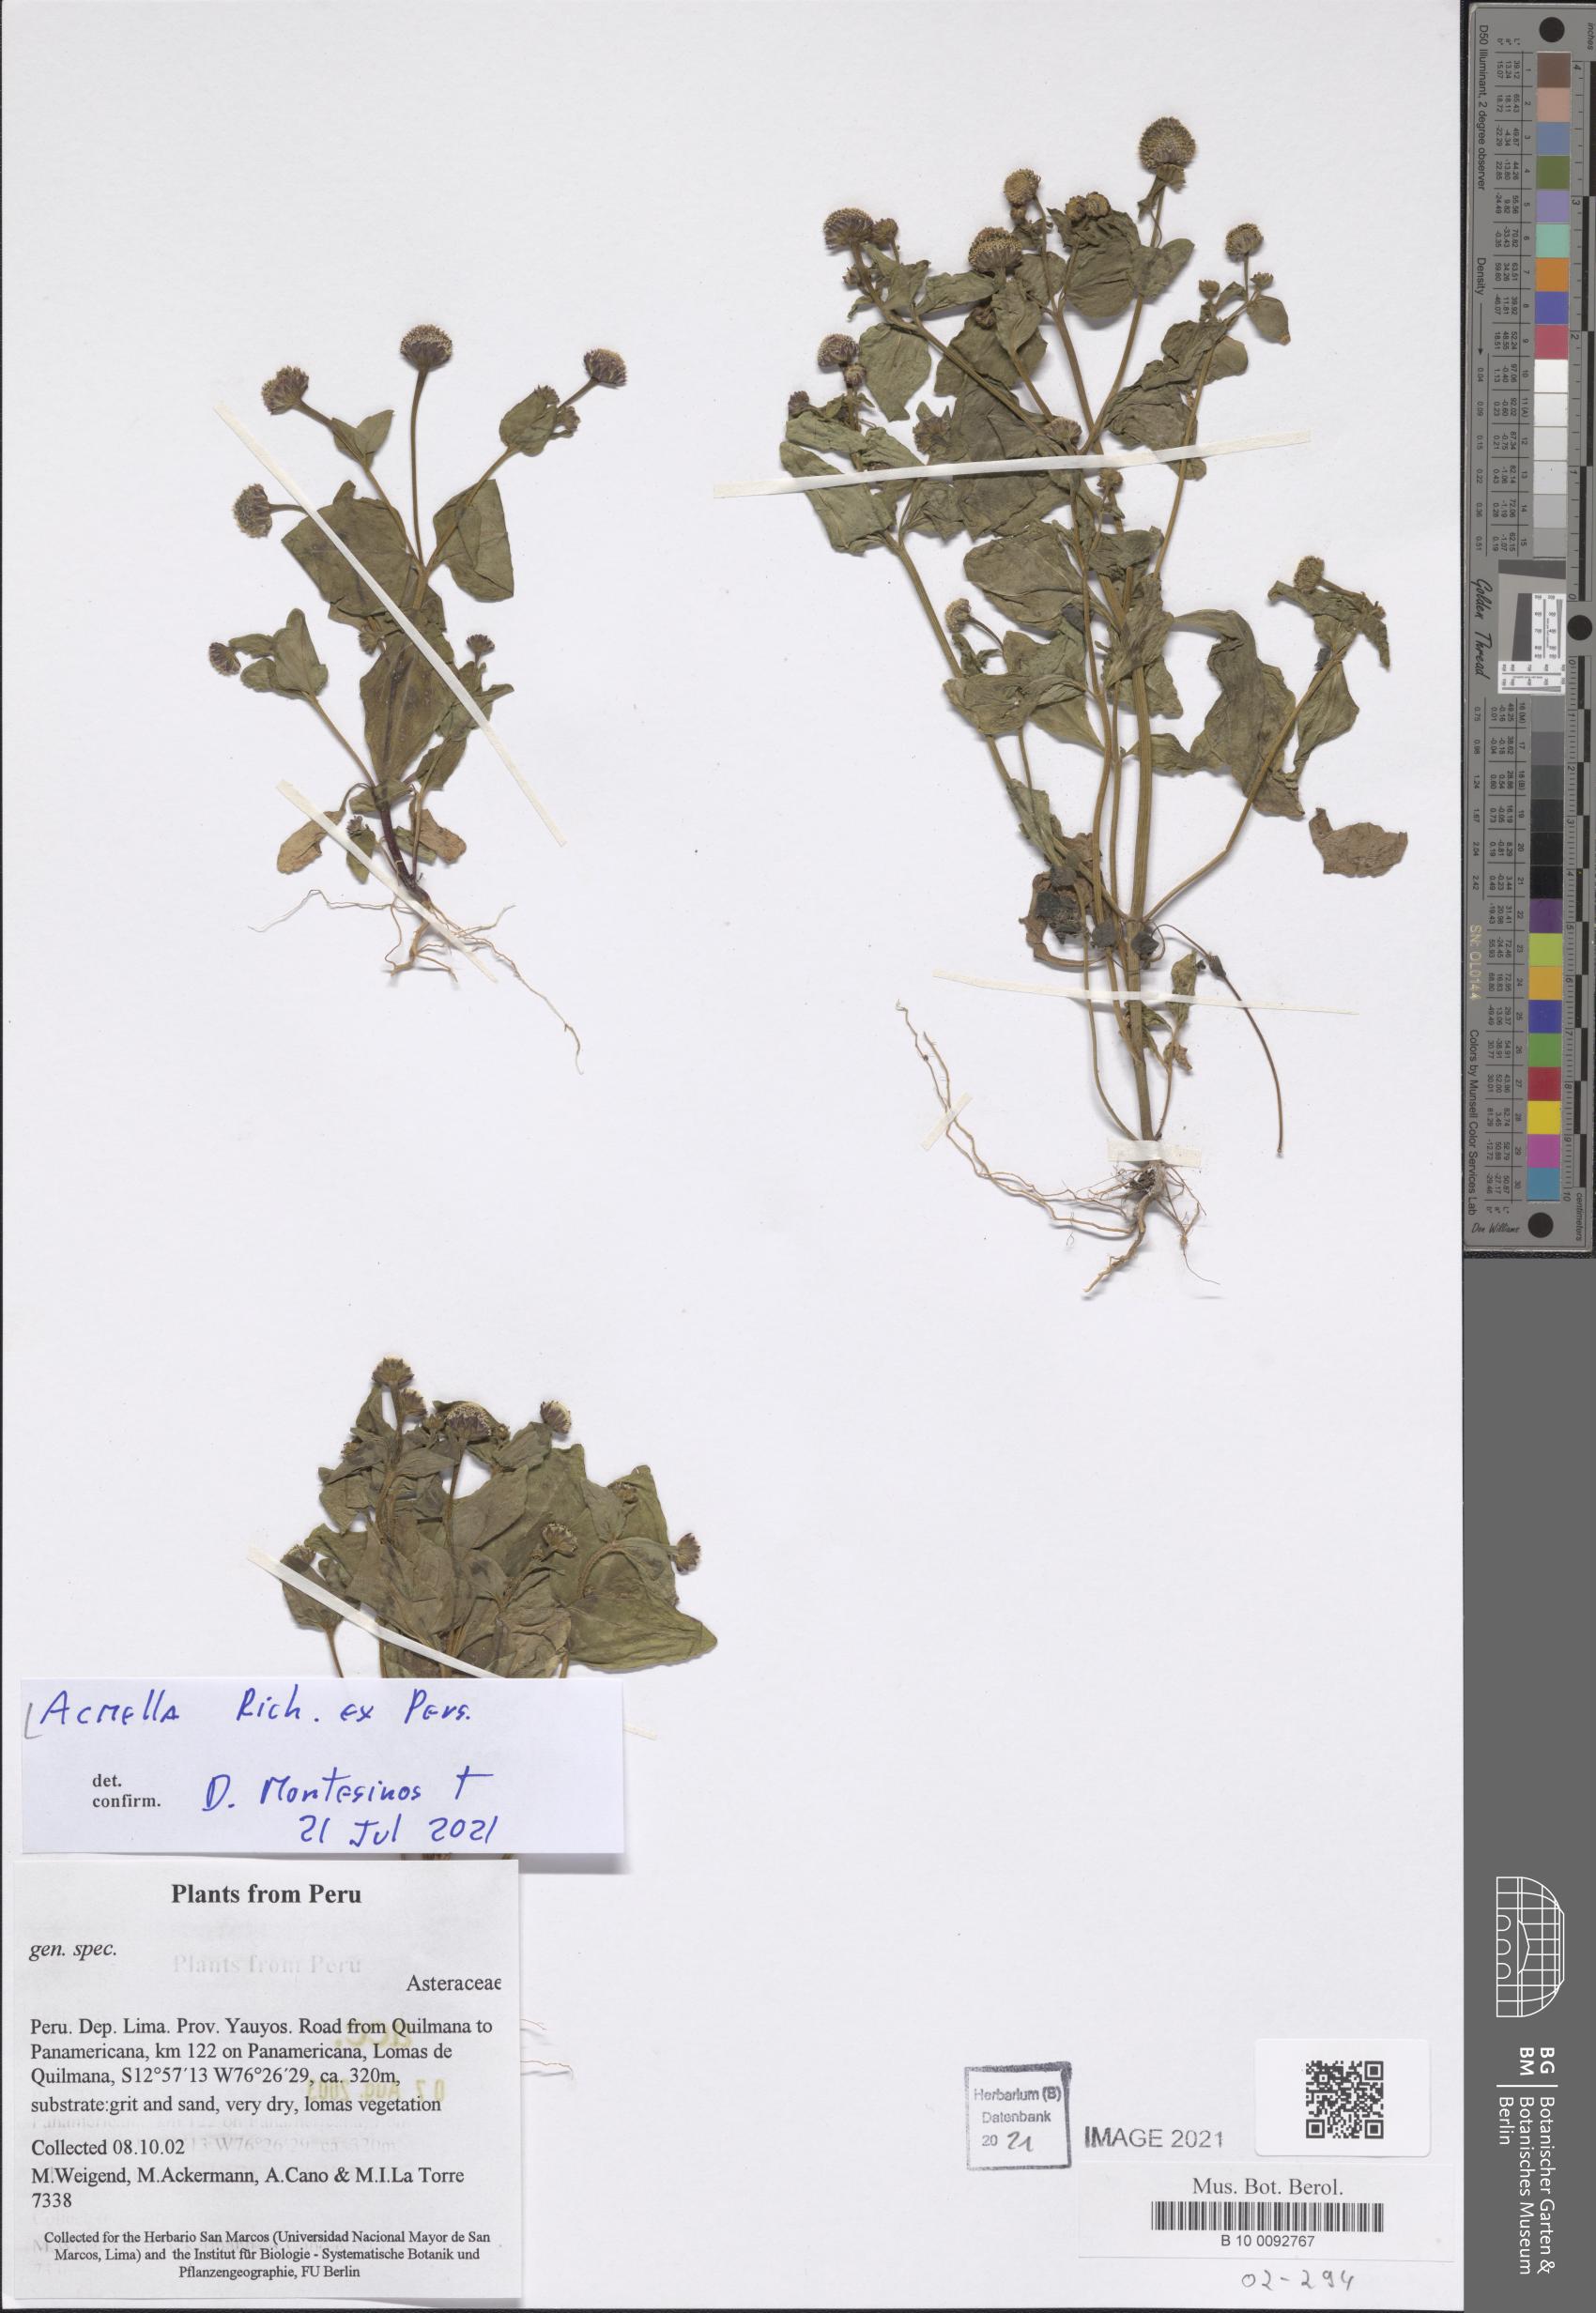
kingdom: Plantae
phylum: Tracheophyta
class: Magnoliopsida
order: Asterales
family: Asteraceae
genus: Acmella
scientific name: Acmella
